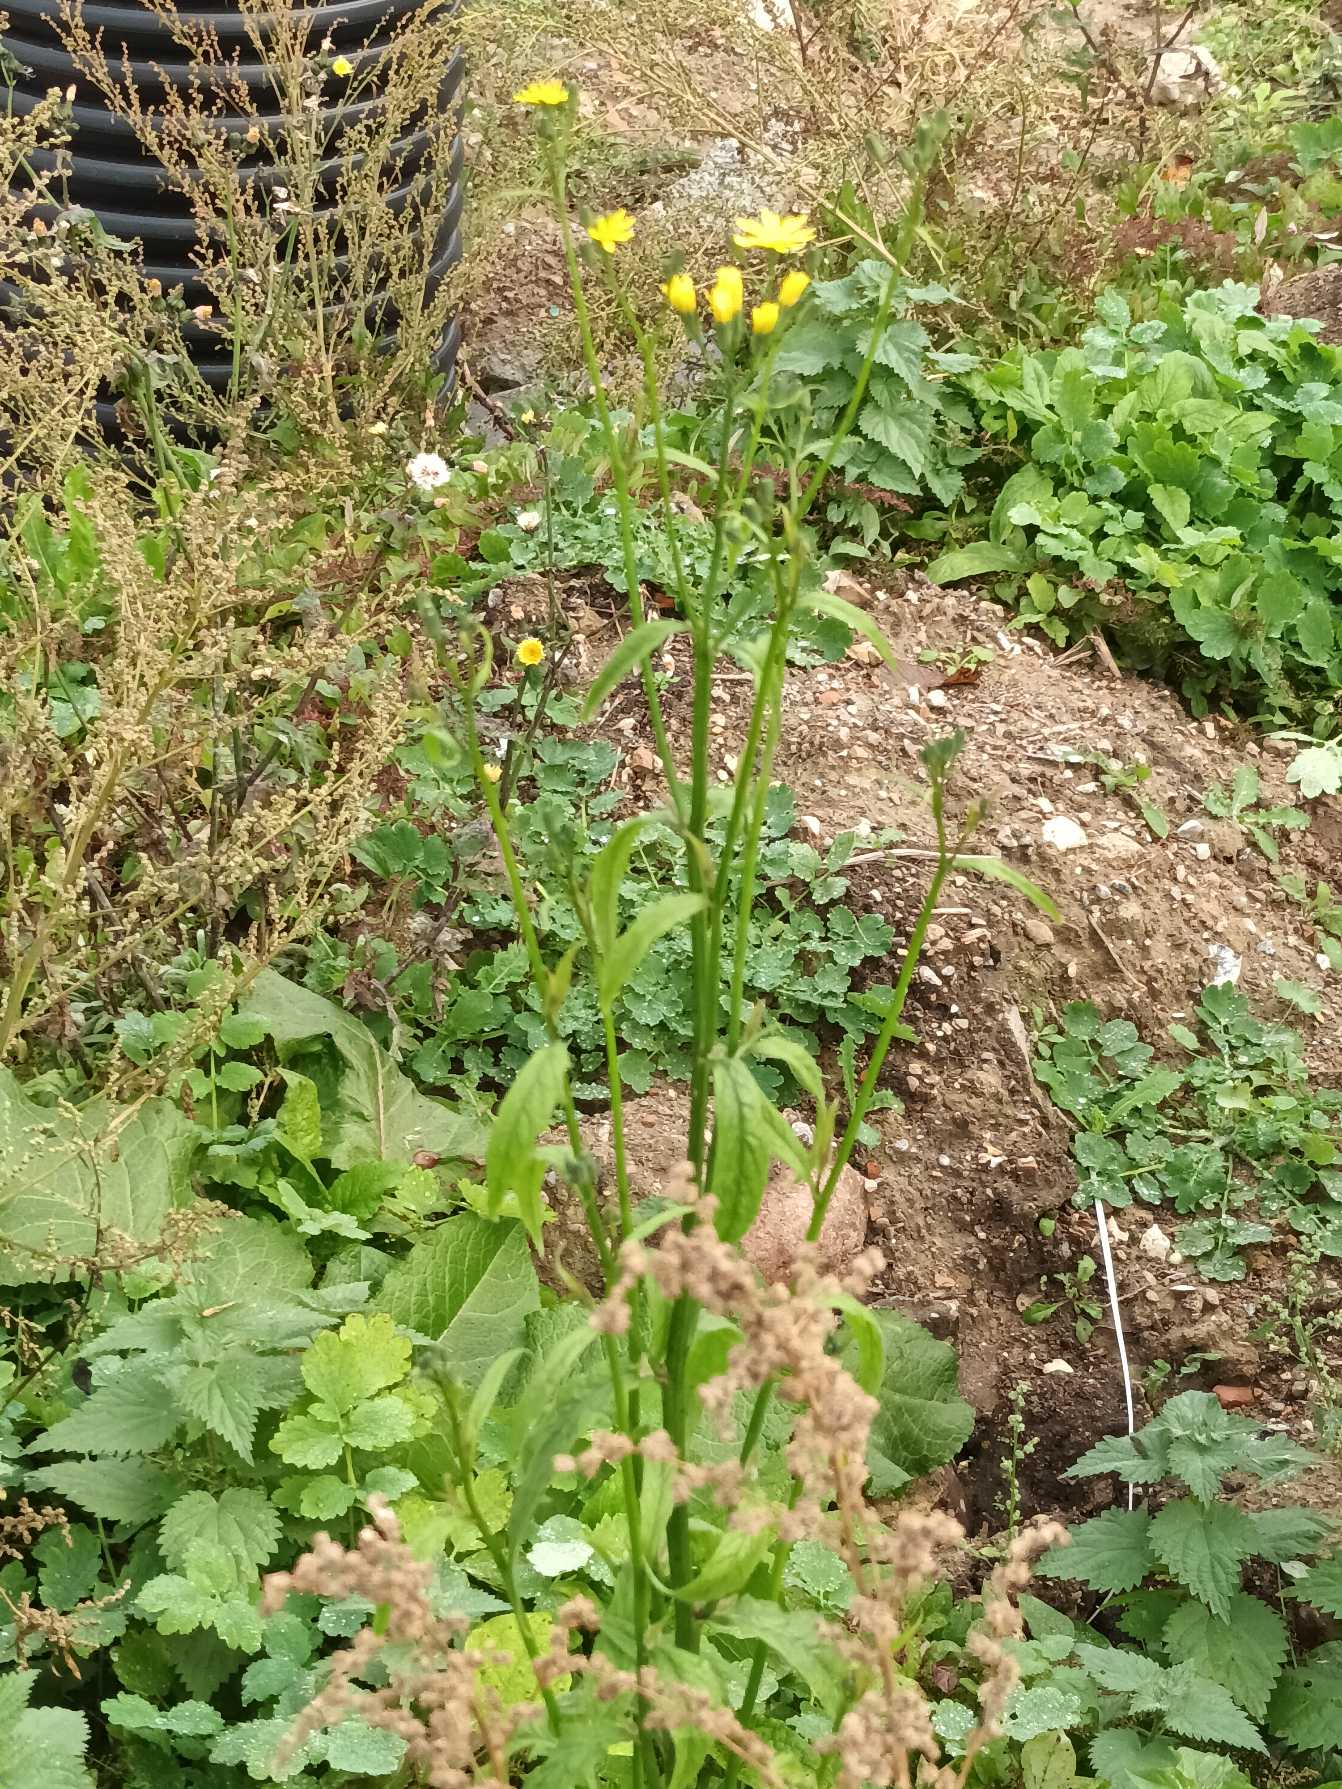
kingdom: Plantae
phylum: Tracheophyta
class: Magnoliopsida
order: Asterales
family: Asteraceae
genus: Lapsana
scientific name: Lapsana communis
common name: Haremad
